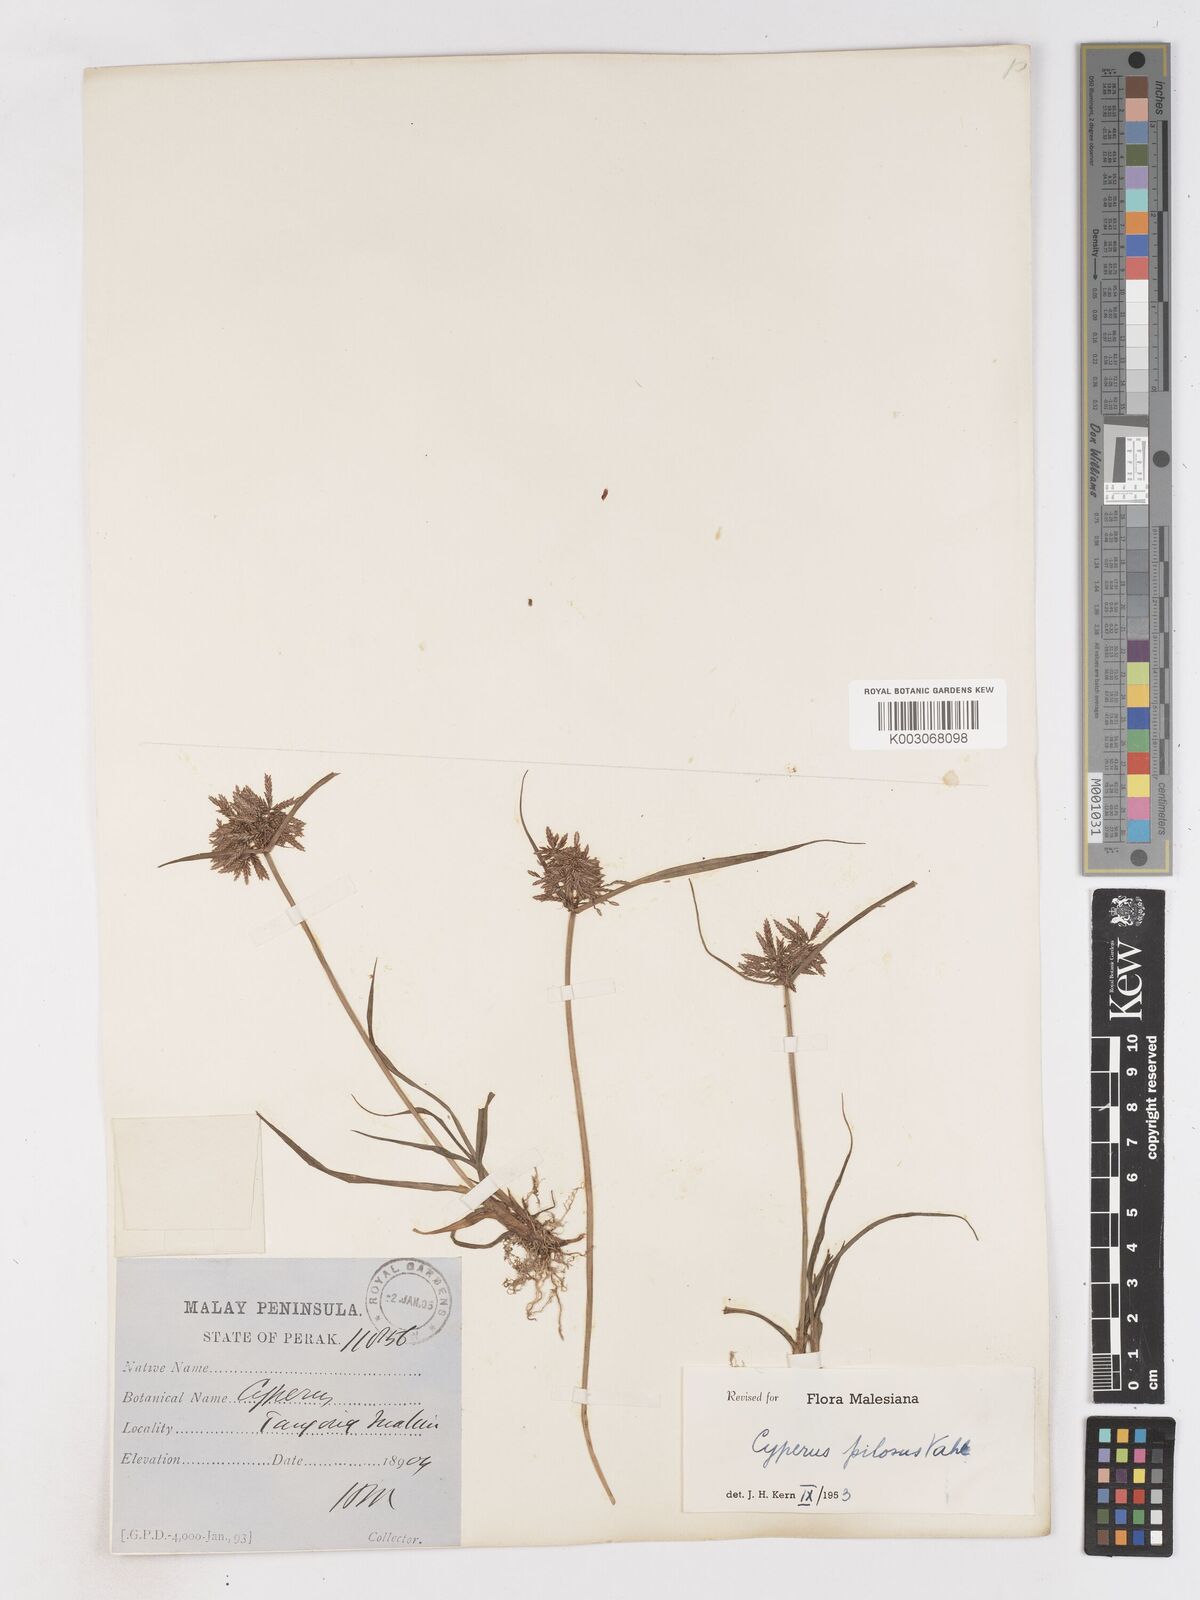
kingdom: Plantae
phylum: Tracheophyta
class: Liliopsida
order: Poales
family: Cyperaceae
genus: Cyperus
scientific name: Cyperus pilosus
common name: Fuzzy flatsedge
